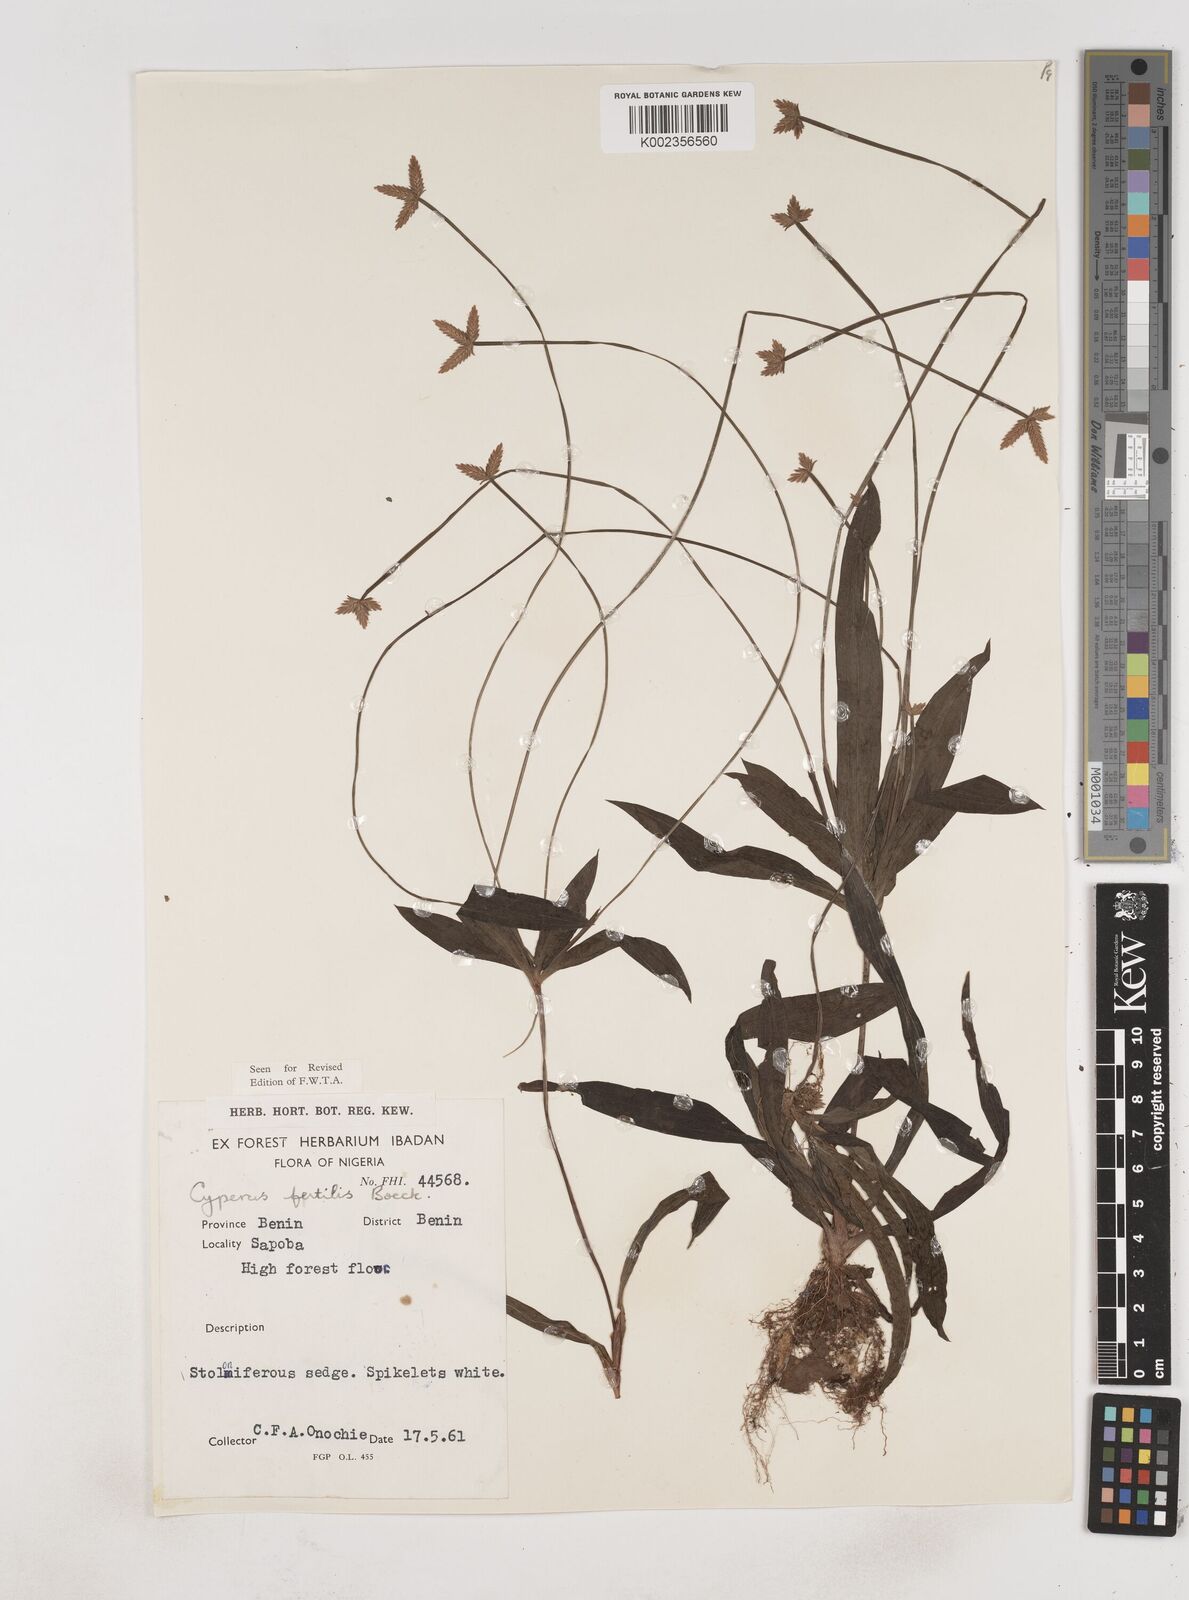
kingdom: Plantae
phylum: Tracheophyta
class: Liliopsida
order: Poales
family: Cyperaceae
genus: Cyperus
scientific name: Cyperus fertilis
